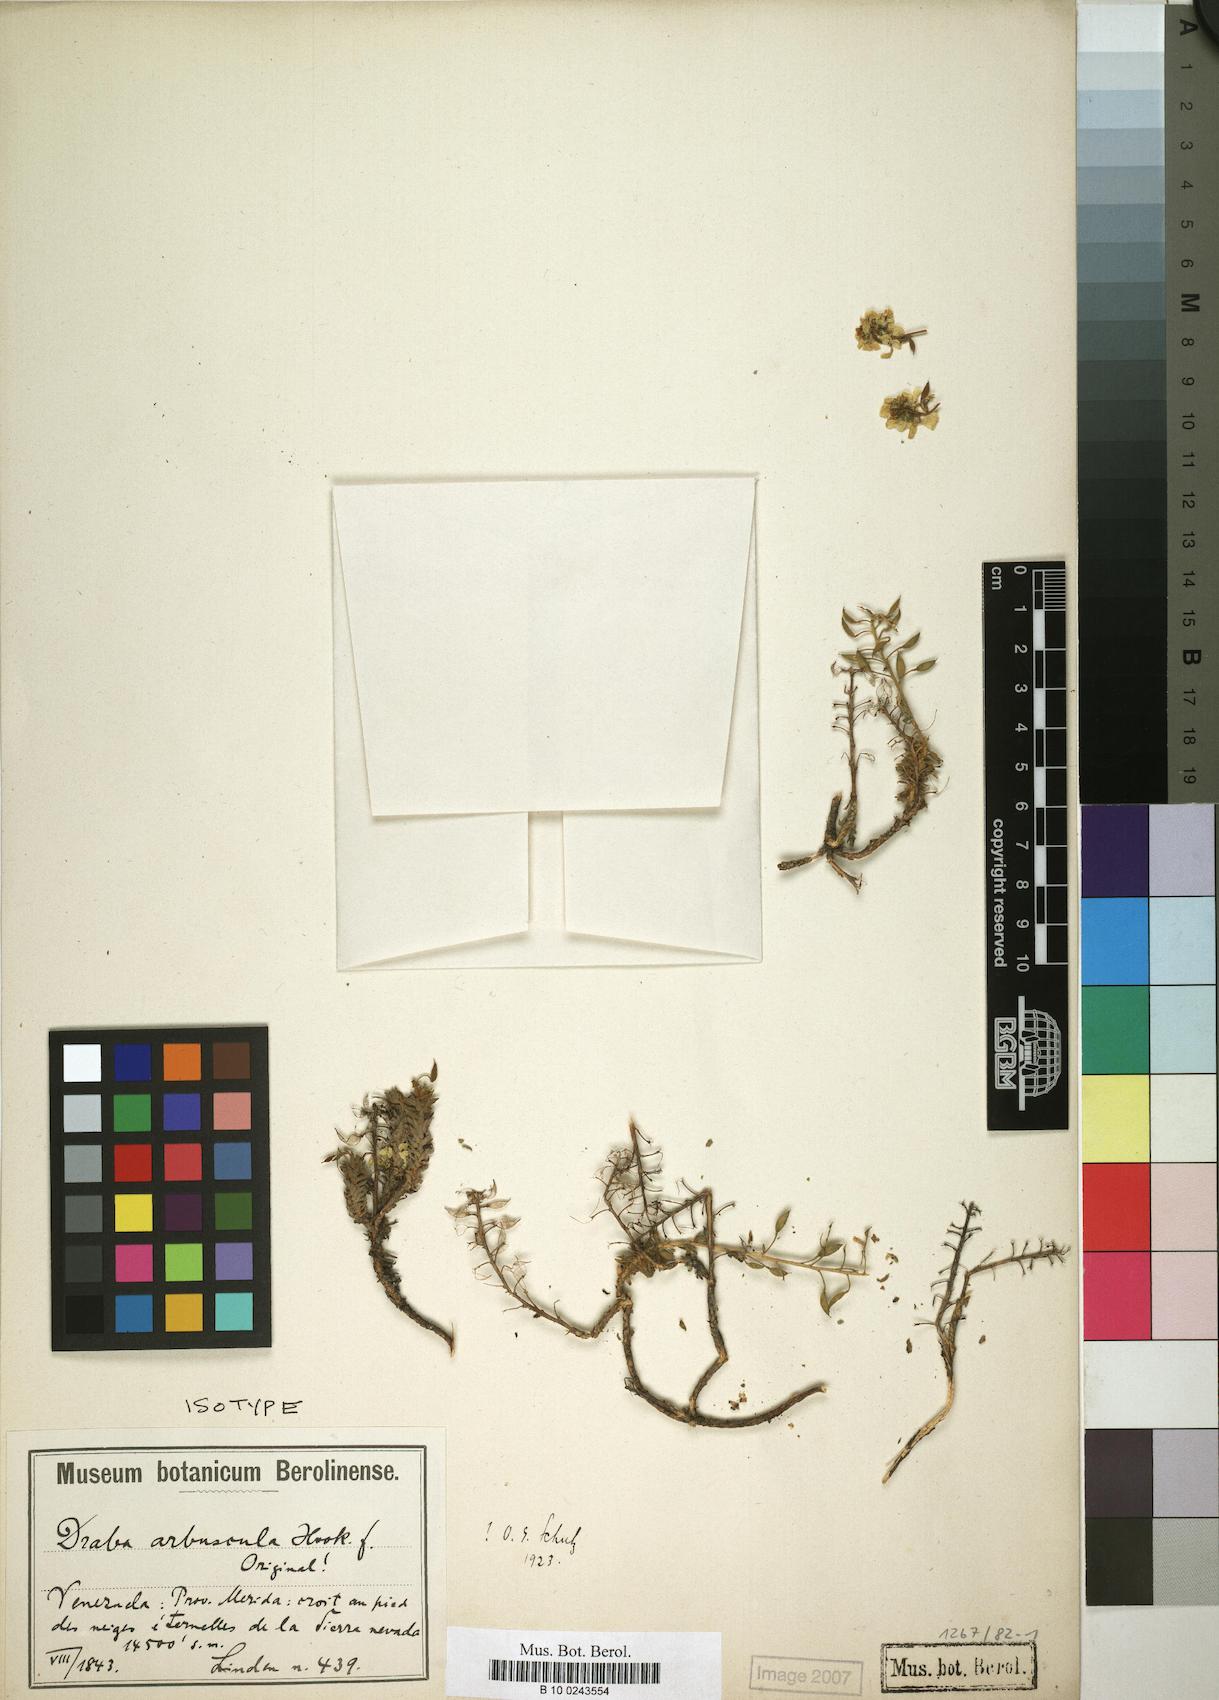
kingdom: Plantae
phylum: Tracheophyta
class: Magnoliopsida
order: Brassicales
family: Brassicaceae
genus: Draba
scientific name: Draba arbuscula
